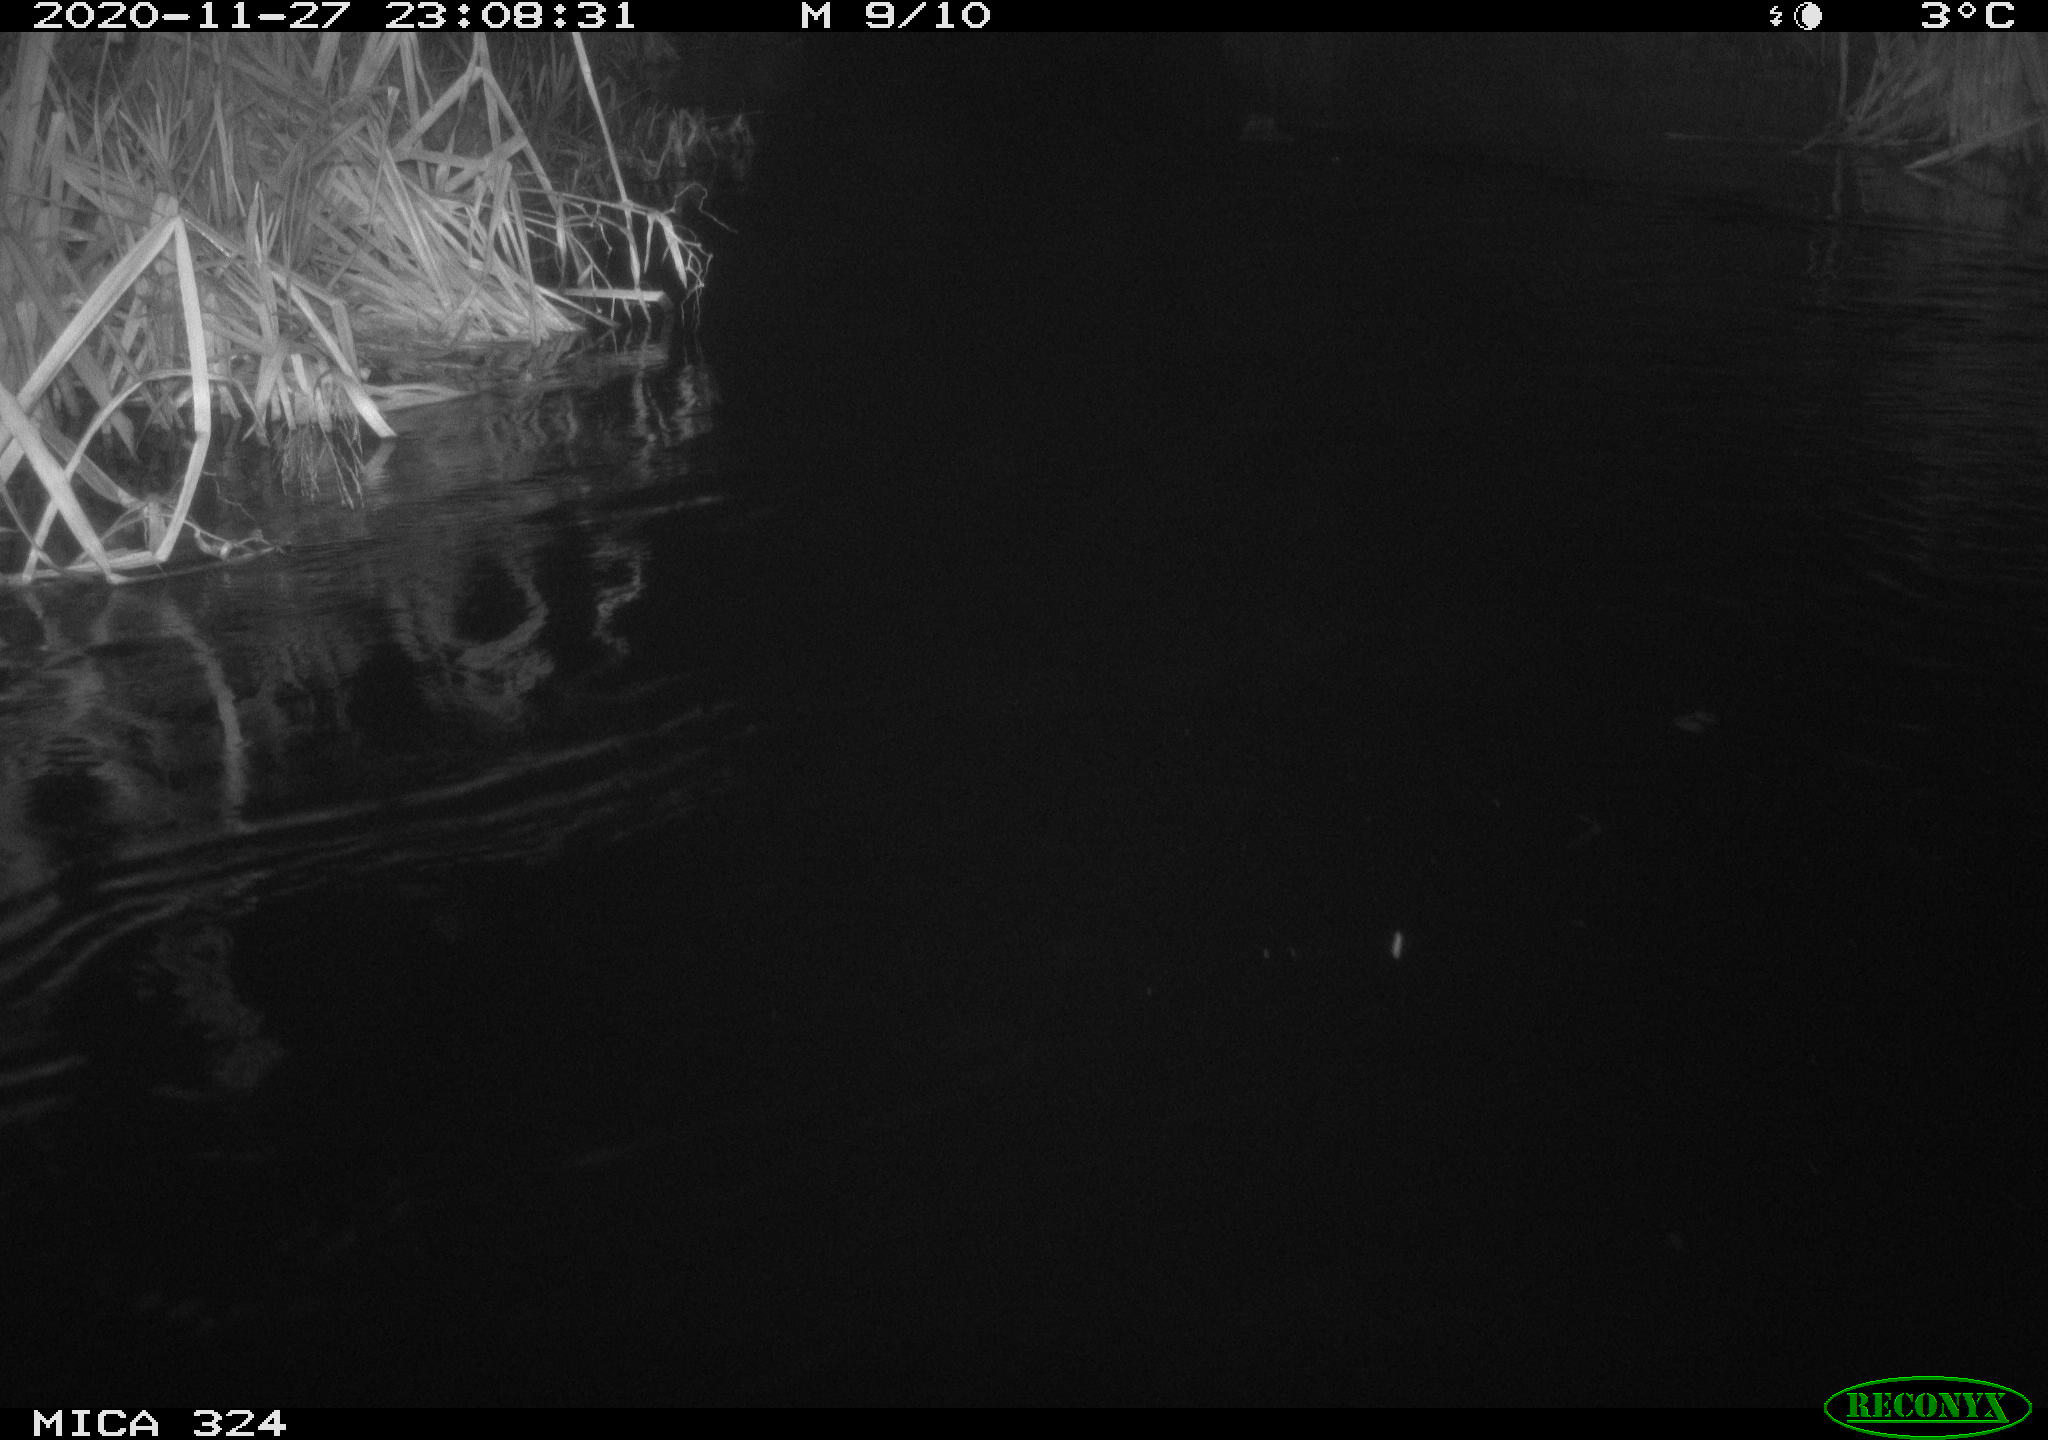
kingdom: Animalia
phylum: Chordata
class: Mammalia
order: Rodentia
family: Myocastoridae
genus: Myocastor
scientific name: Myocastor coypus
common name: Coypu
